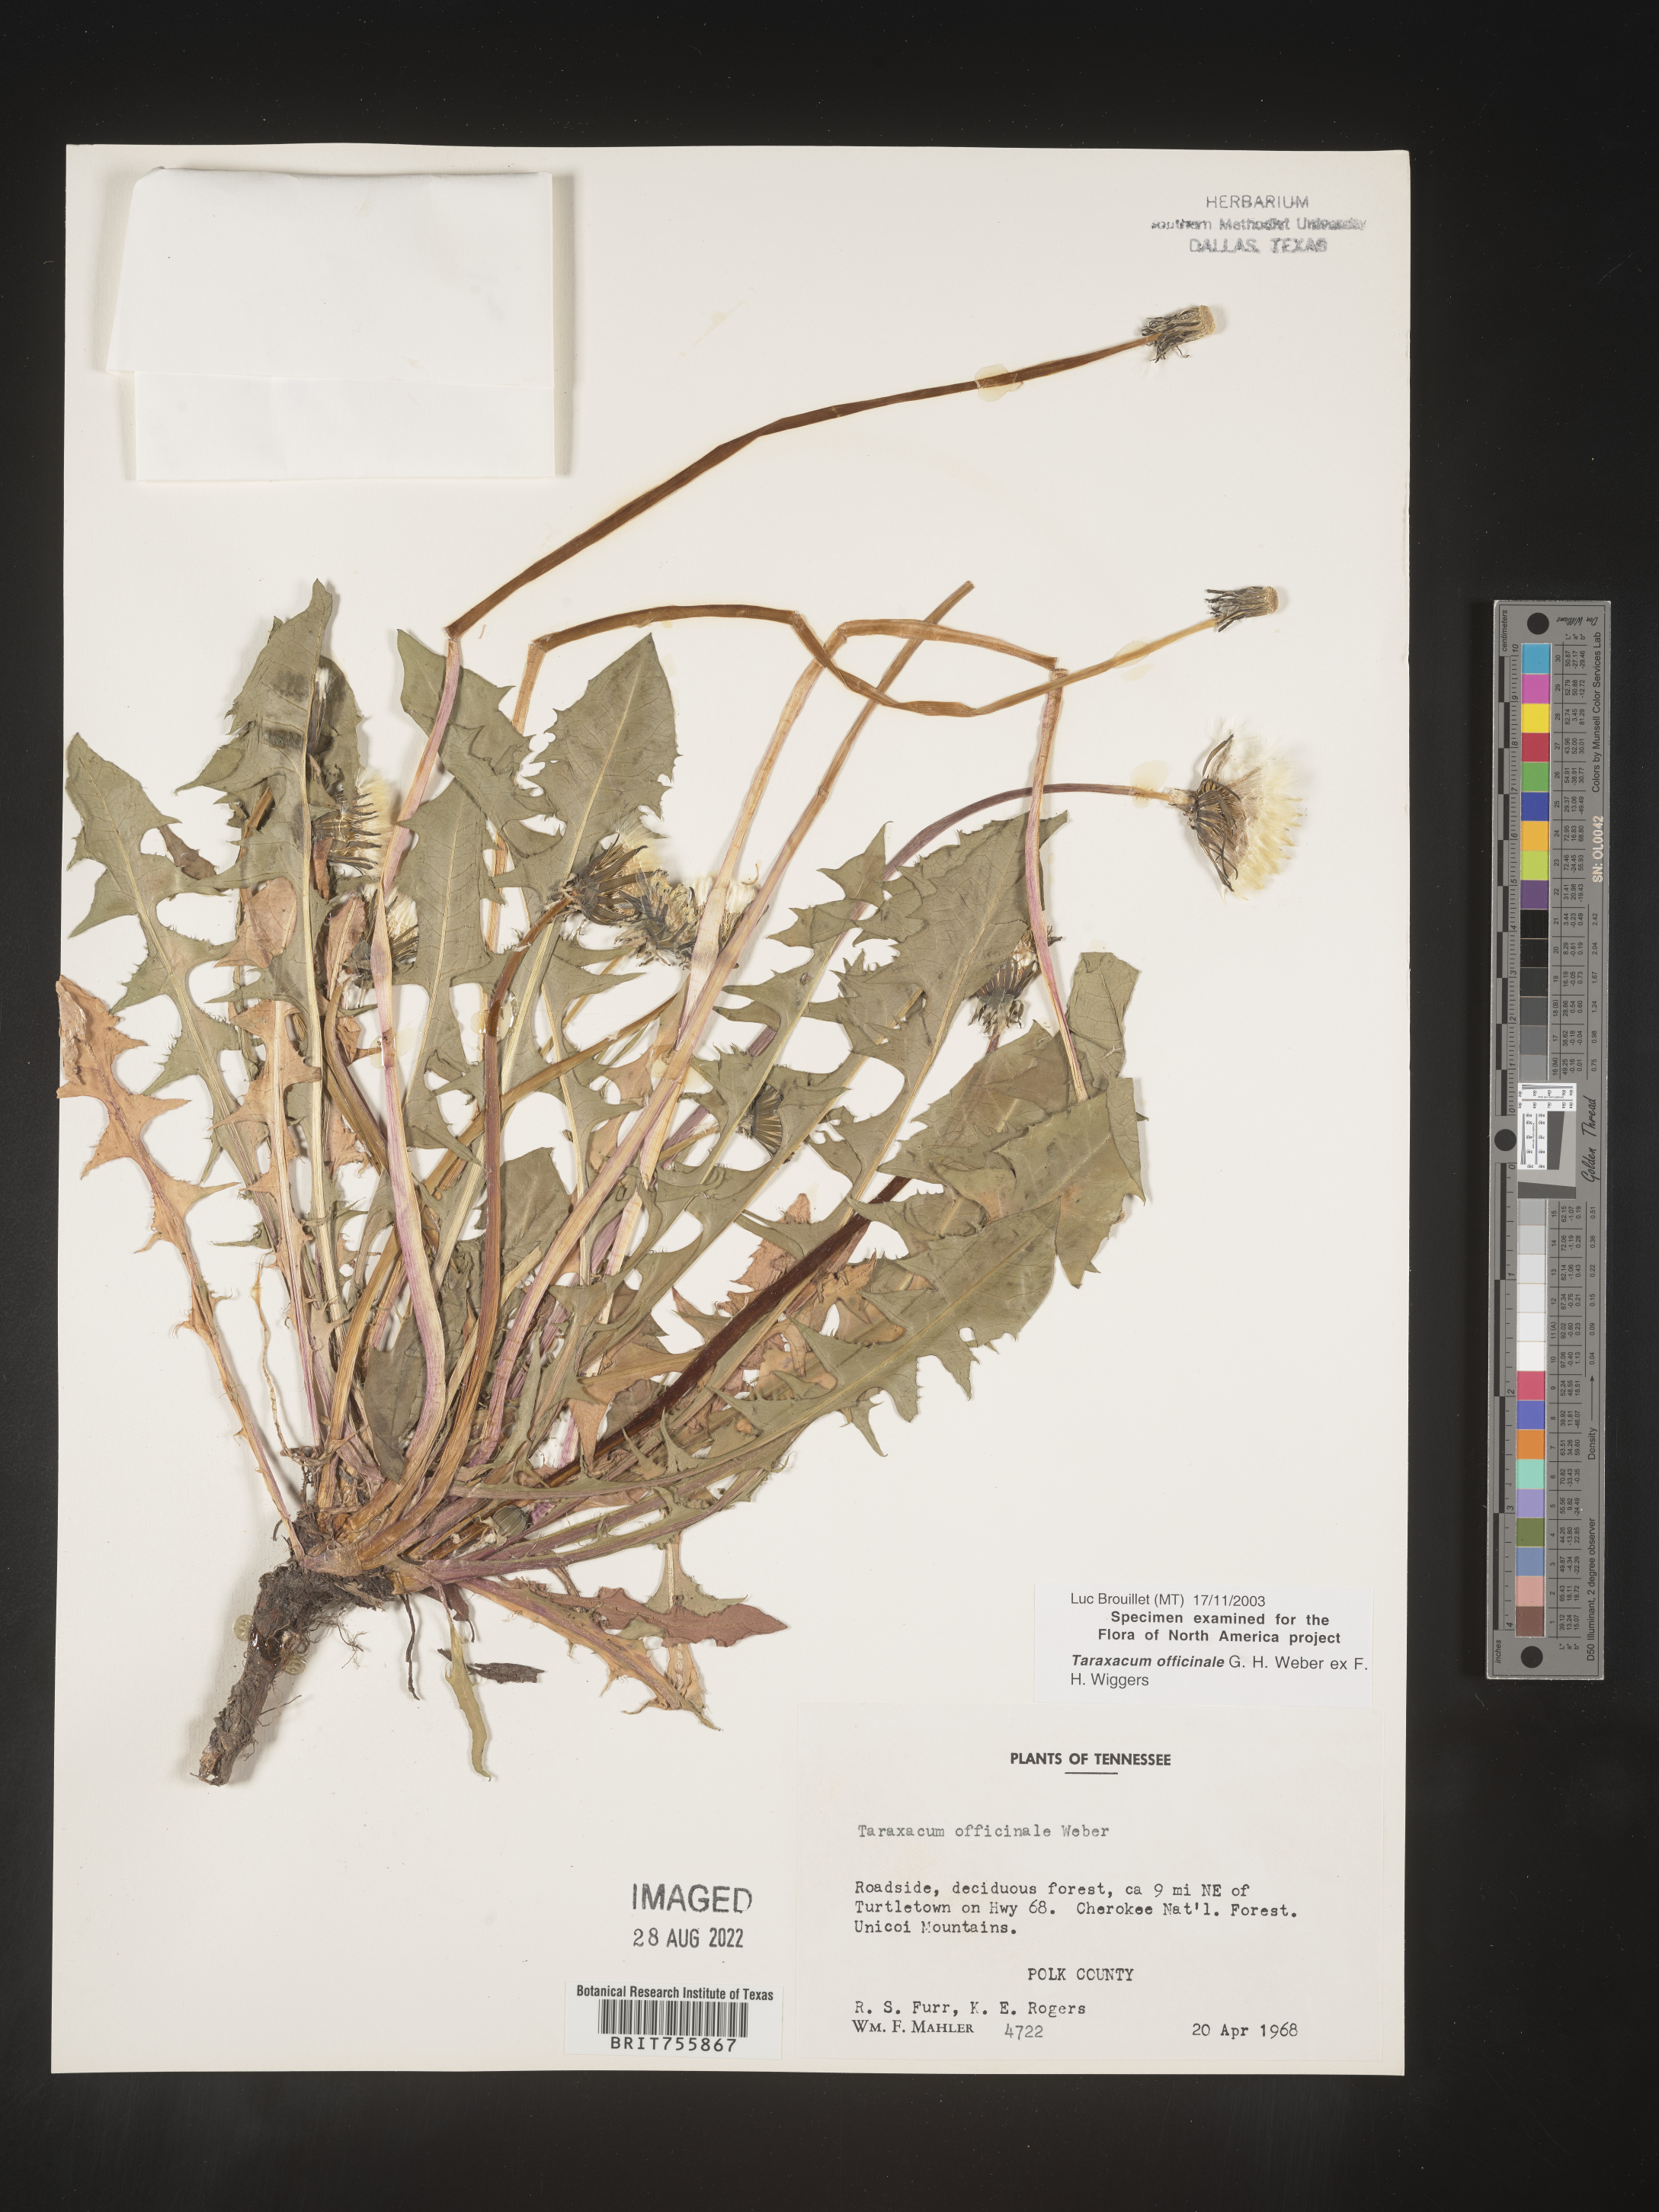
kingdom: Plantae
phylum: Tracheophyta
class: Magnoliopsida
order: Asterales
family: Asteraceae
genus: Taraxacum
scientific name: Taraxacum officinale
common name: Common dandelion
